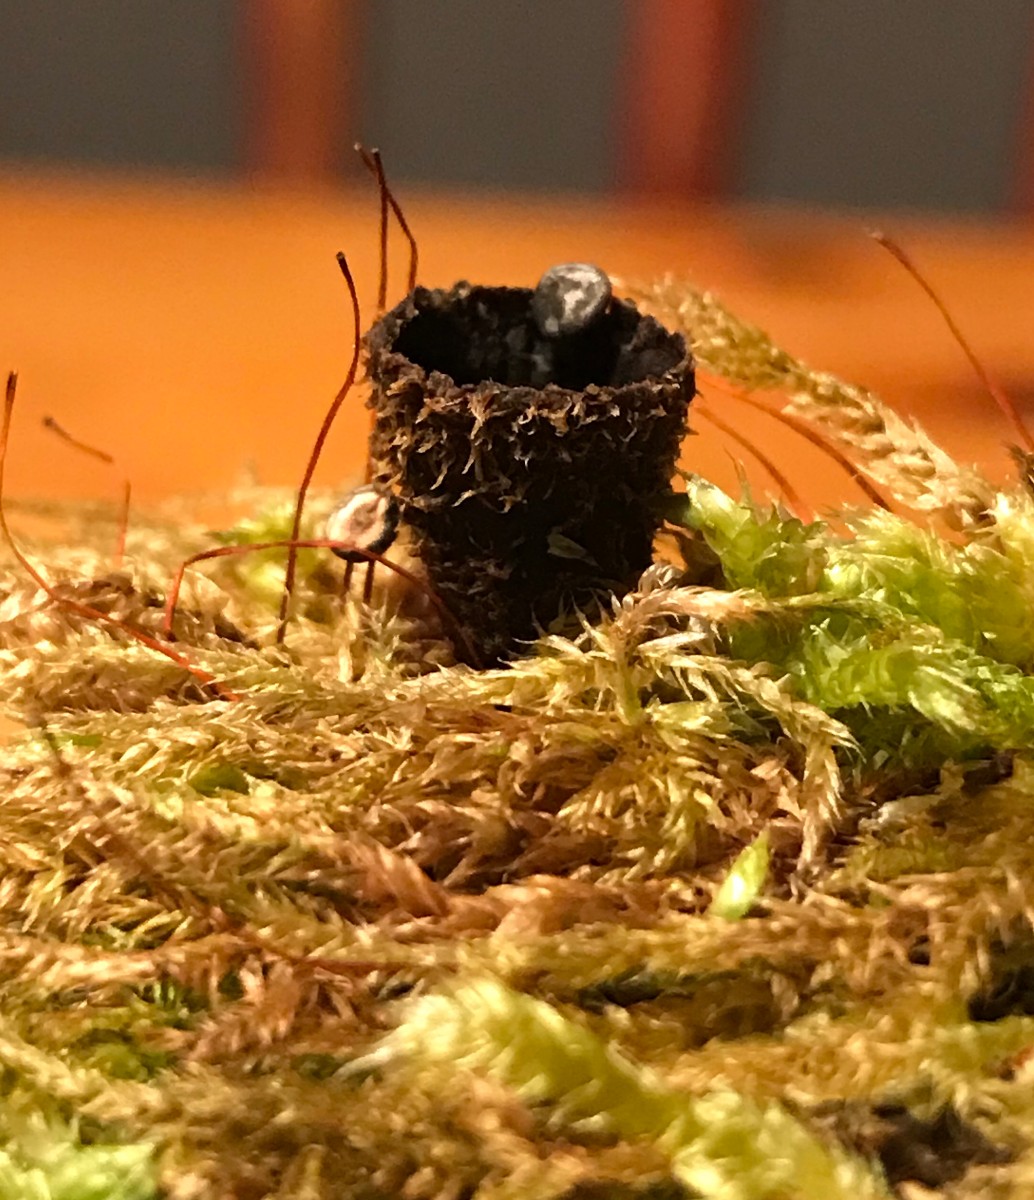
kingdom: Fungi
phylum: Basidiomycota
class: Agaricomycetes
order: Agaricales
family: Agaricaceae
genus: Cyathus
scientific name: Cyathus striatus
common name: stribet redesvamp
